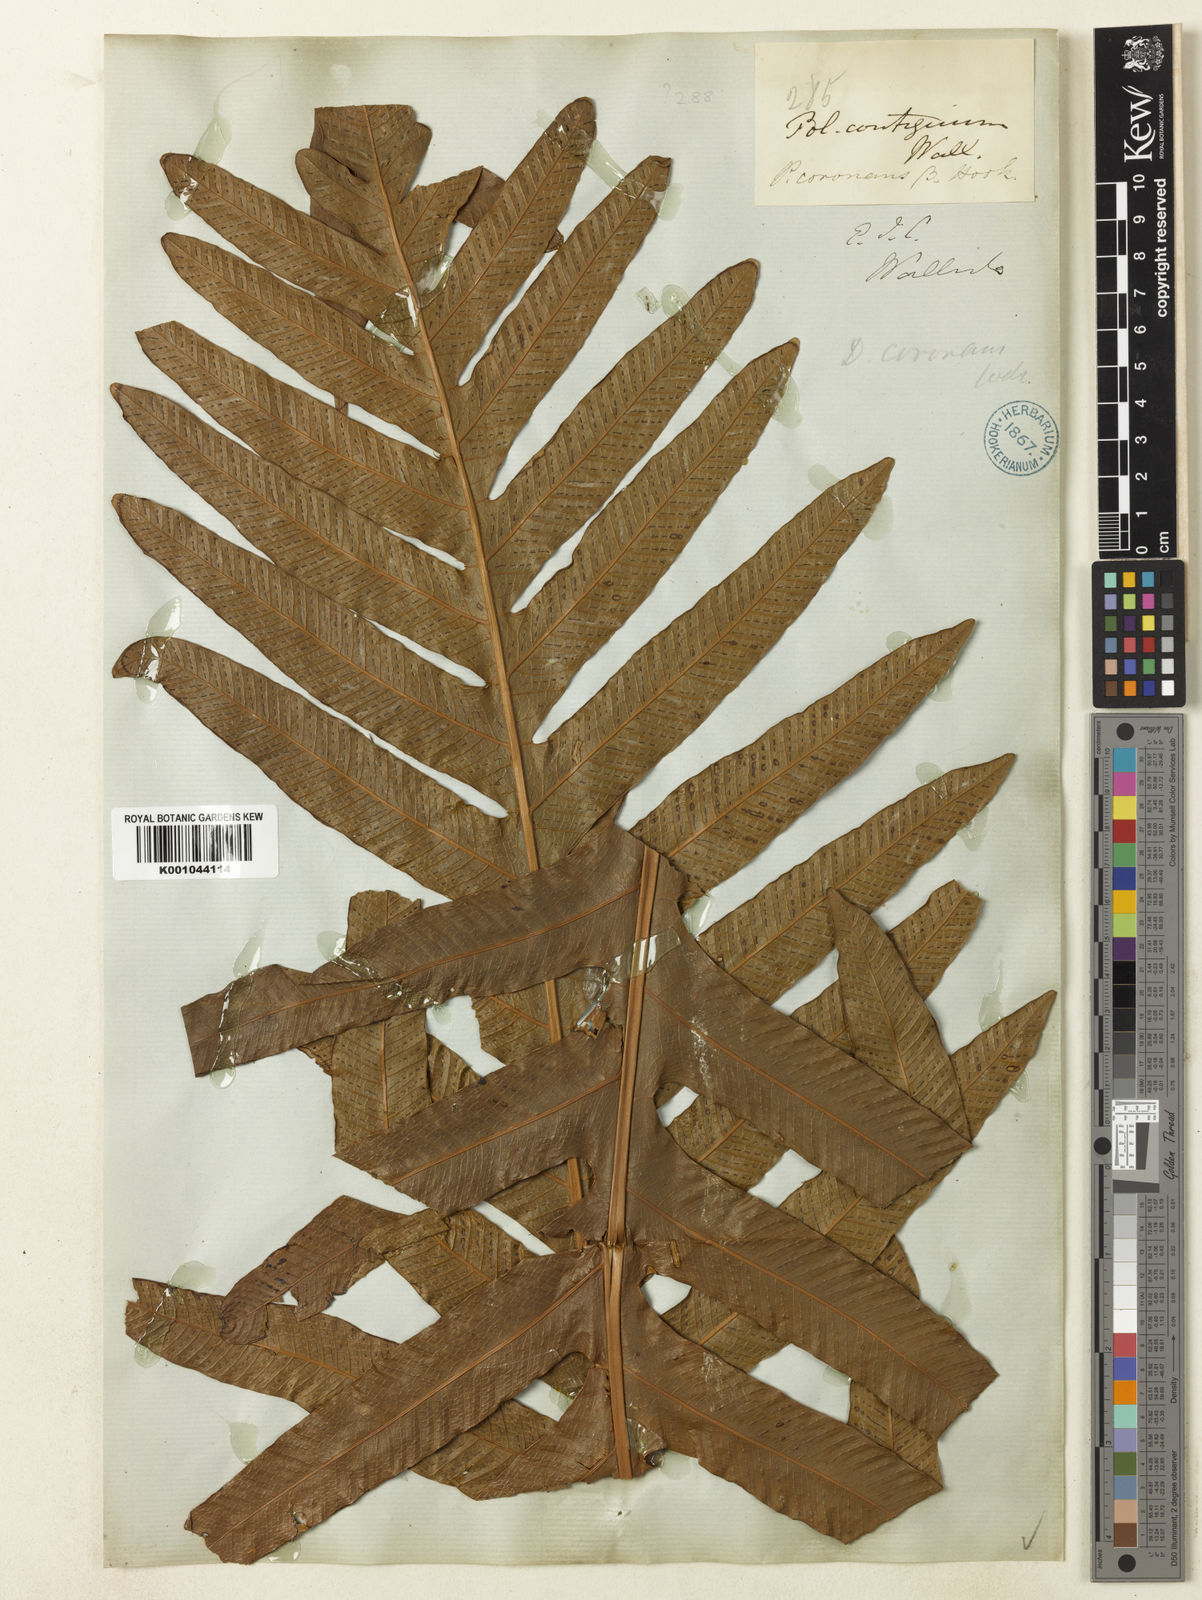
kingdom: Plantae
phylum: Tracheophyta
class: Polypodiopsida
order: Polypodiales
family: Polypodiaceae
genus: Drynaria
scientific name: Drynaria coronans
